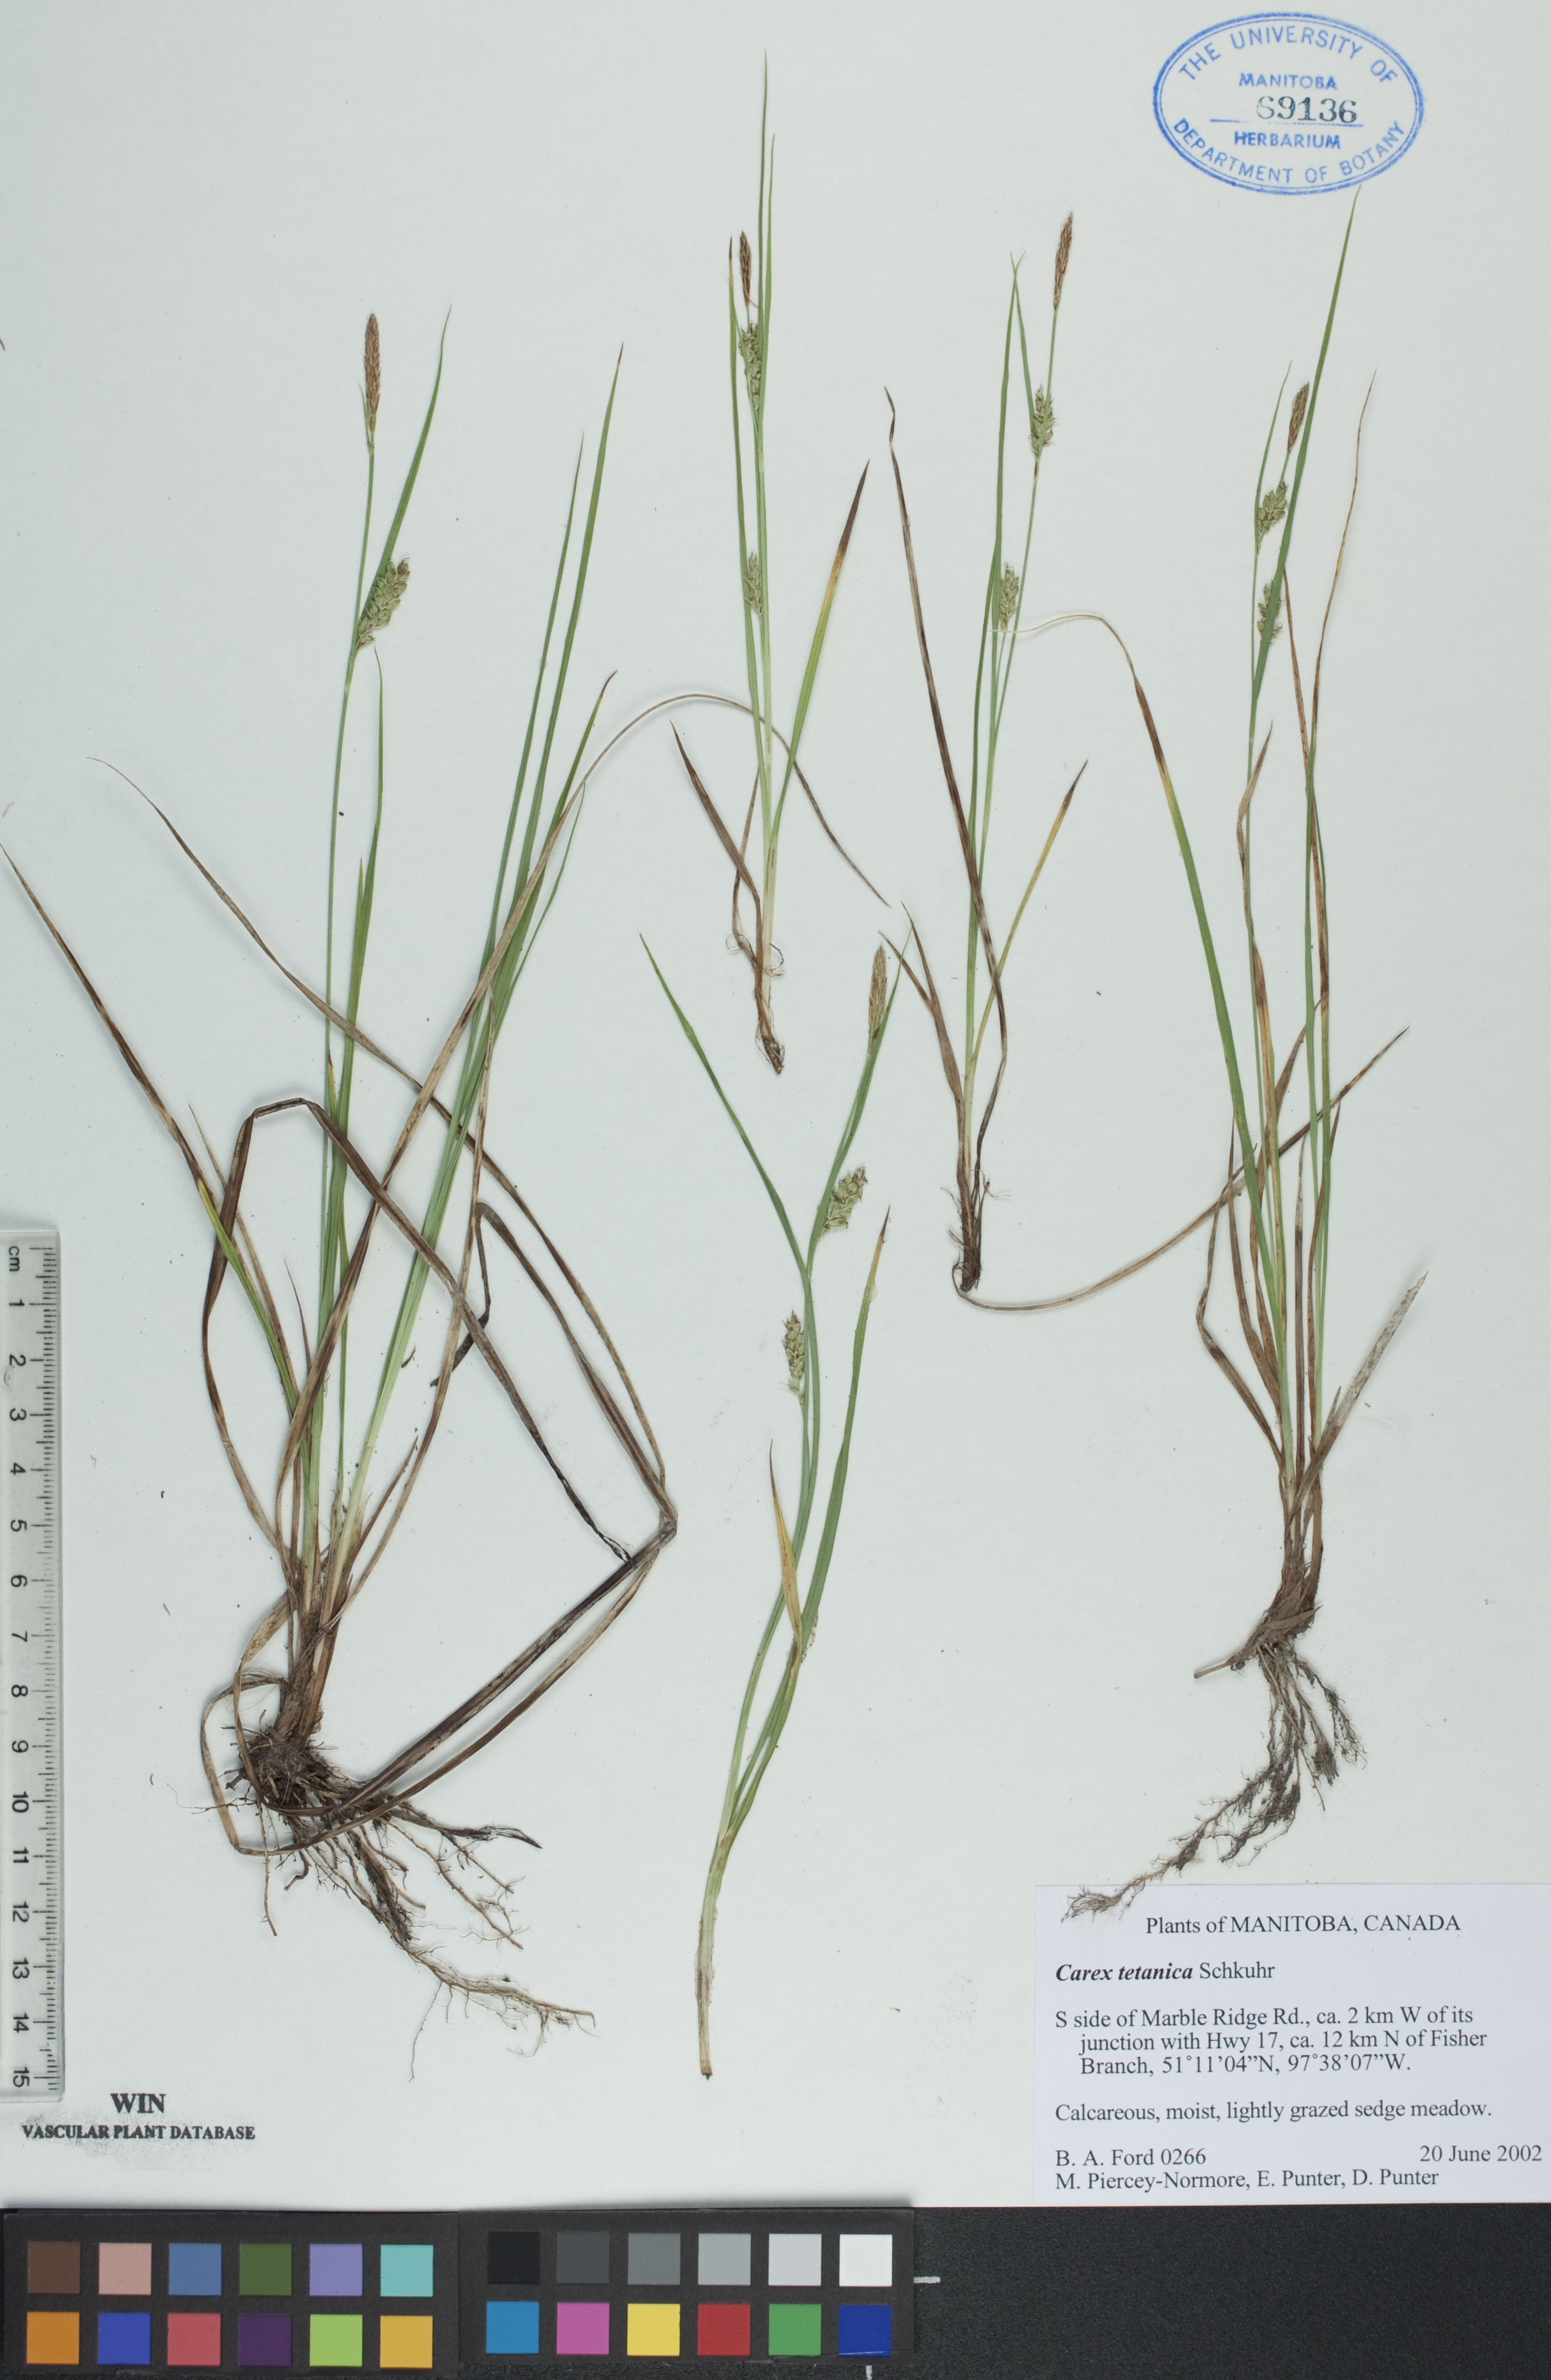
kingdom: Plantae
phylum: Tracheophyta
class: Liliopsida
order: Poales
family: Cyperaceae
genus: Carex
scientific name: Carex tetanica
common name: Rigid sedge
